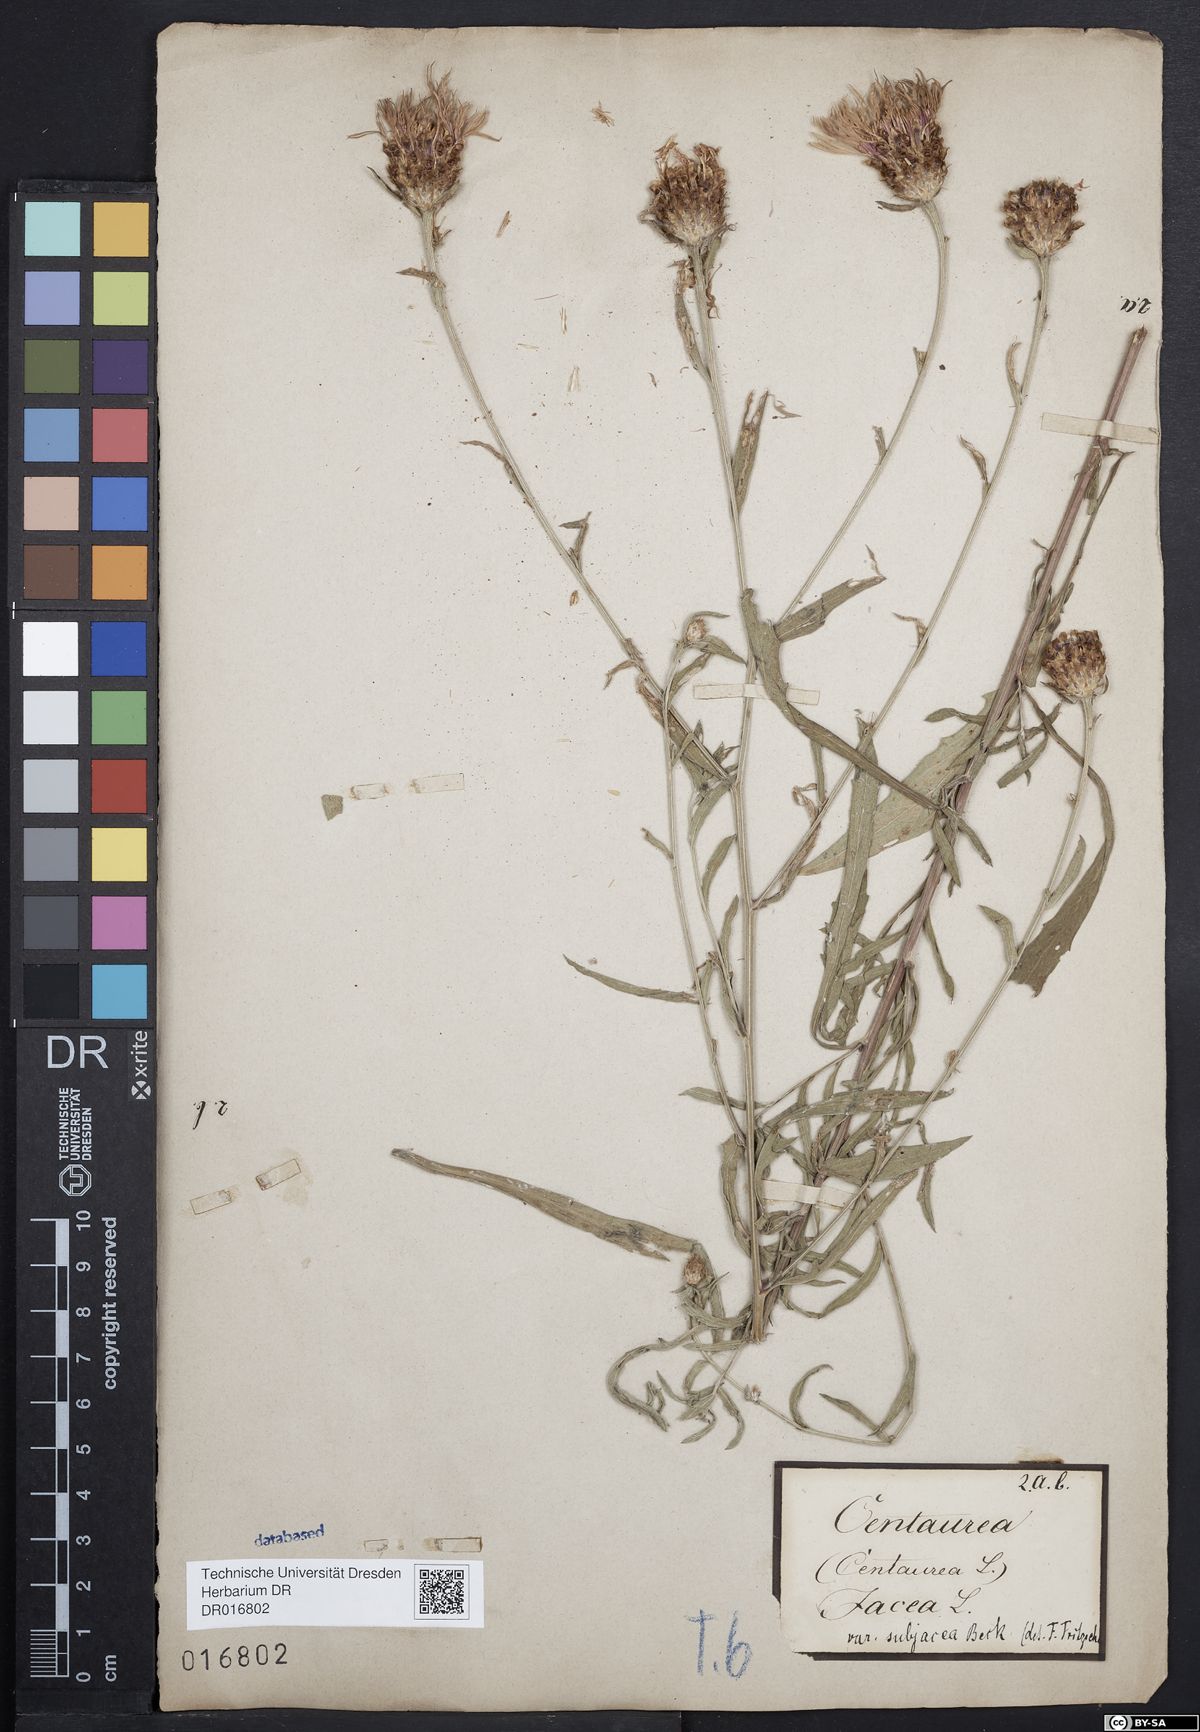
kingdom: Plantae
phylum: Tracheophyta
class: Magnoliopsida
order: Asterales
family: Asteraceae
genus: Centaurea
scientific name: Centaurea preissmannii
